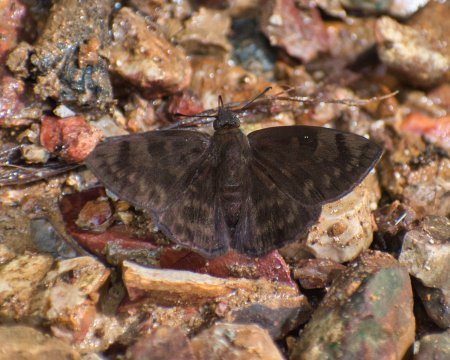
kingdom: Animalia
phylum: Arthropoda
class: Insecta
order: Lepidoptera
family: Hesperiidae
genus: Pachyneuria
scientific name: Pachyneuria licisca
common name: Immaculate Tufted-Skipper
